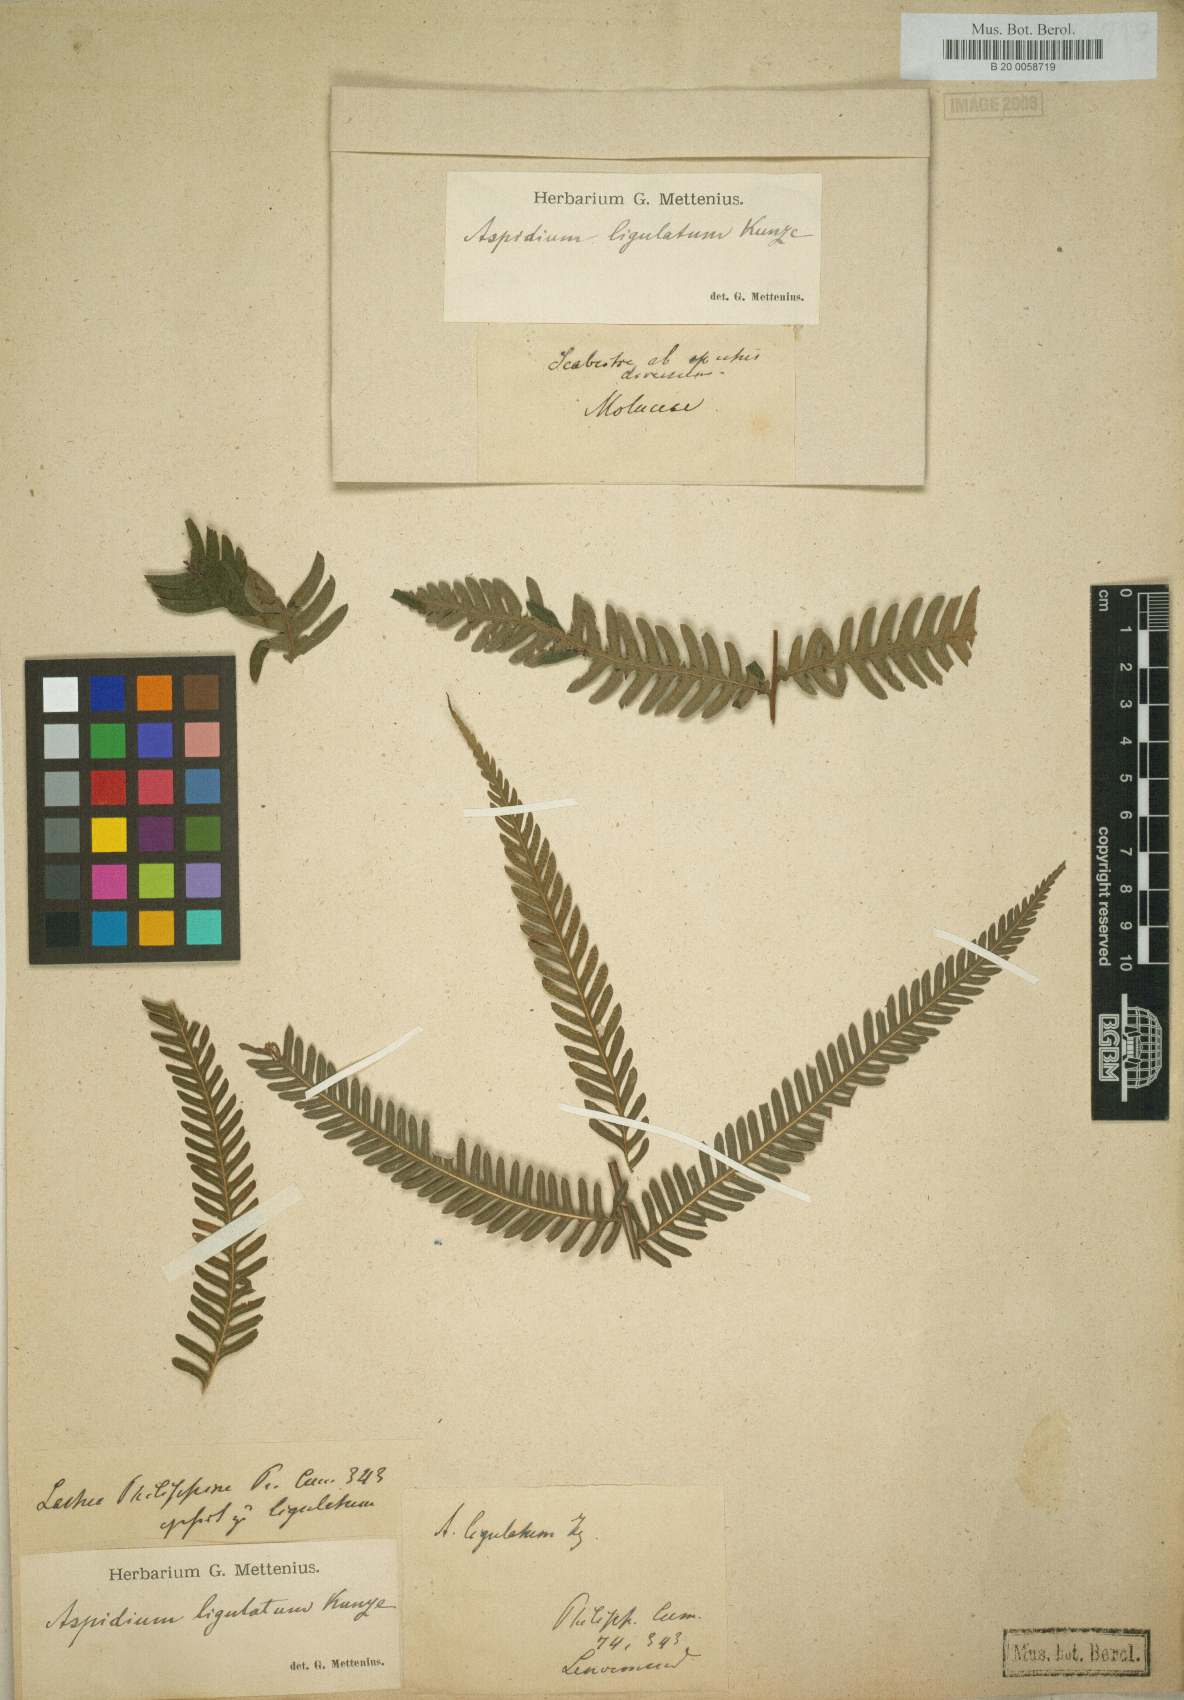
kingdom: Plantae
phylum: Tracheophyta
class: Polypodiopsida
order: Polypodiales
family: Thelypteridaceae
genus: Plesioneuron
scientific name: Plesioneuron ligulatum
